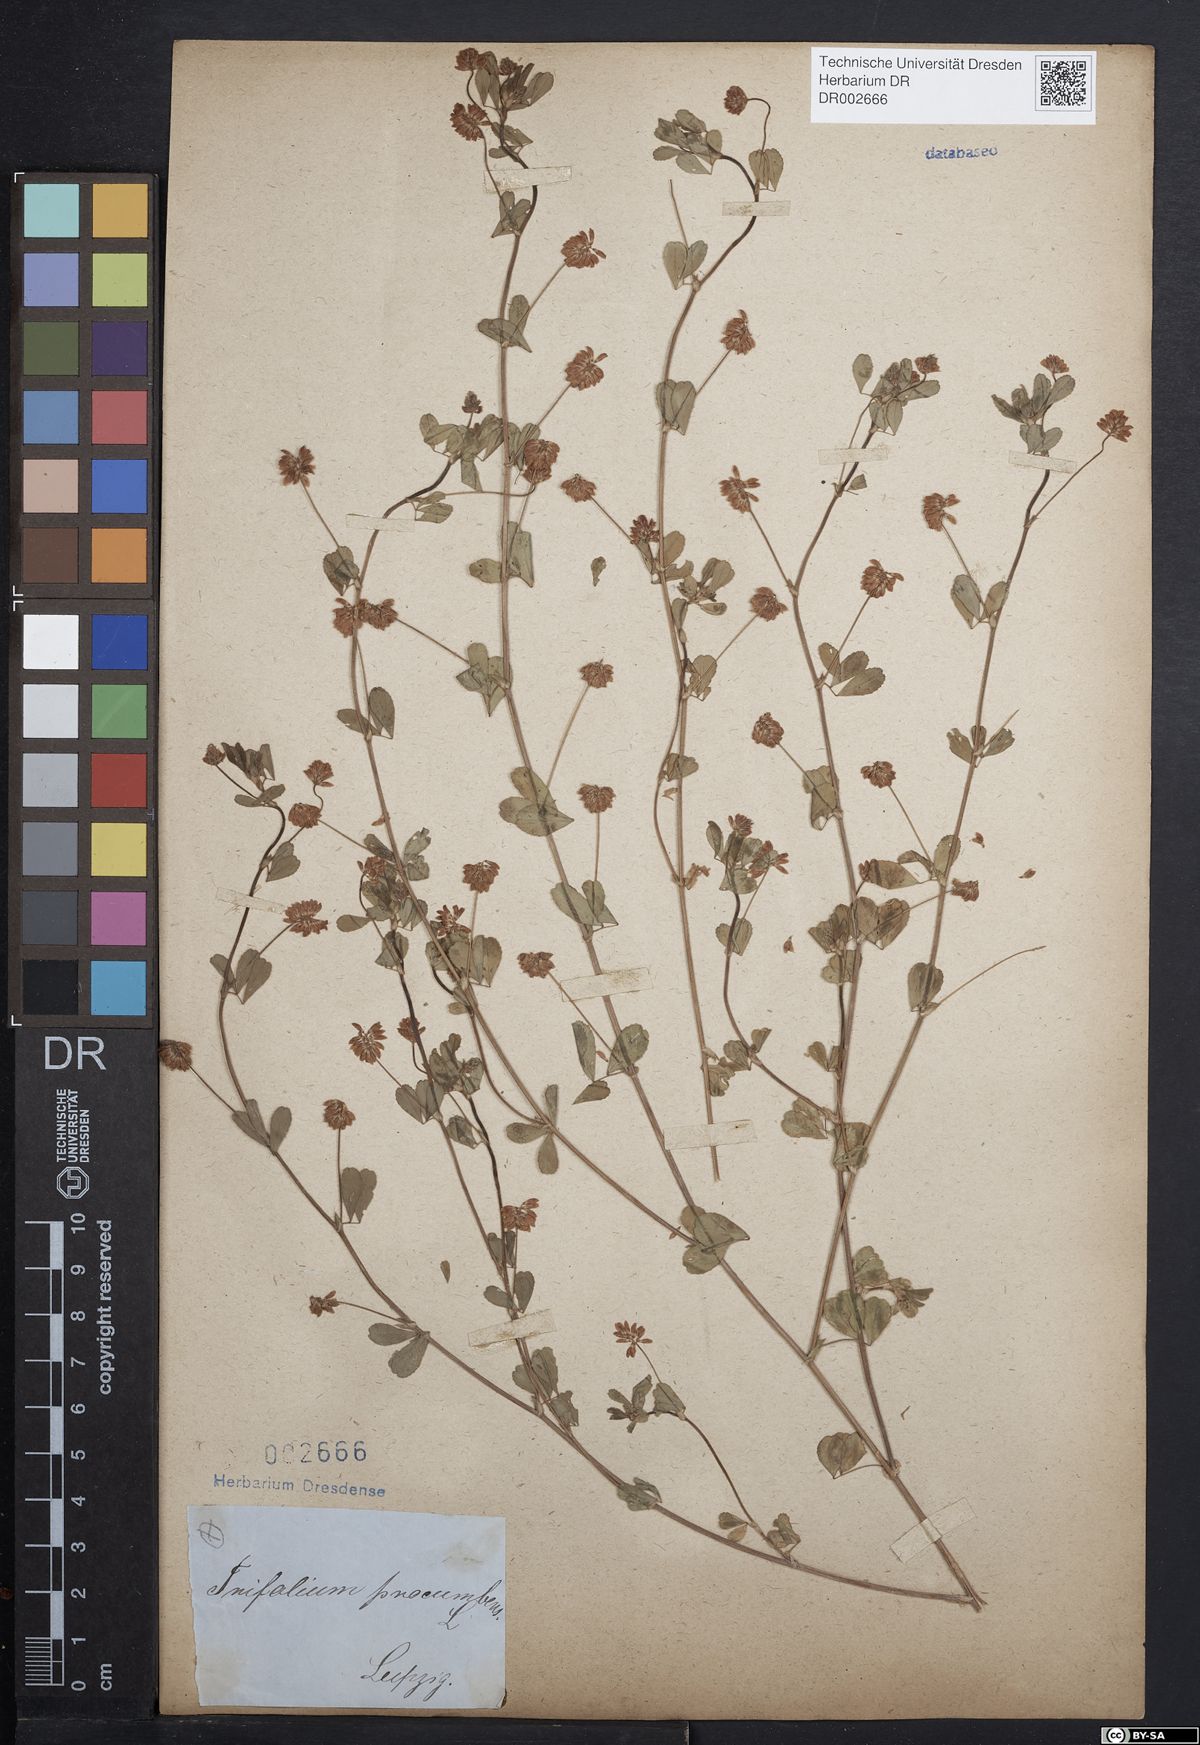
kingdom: Plantae
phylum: Tracheophyta
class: Magnoliopsida
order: Fabales
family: Fabaceae
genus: Trifolium
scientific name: Trifolium campestre
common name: Field clover
